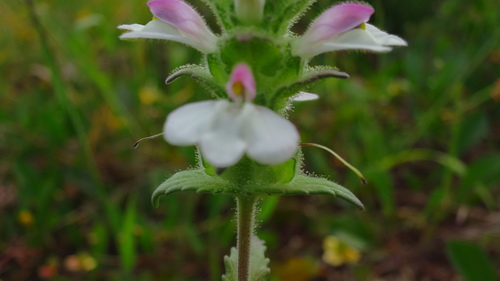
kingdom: Plantae
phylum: Tracheophyta
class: Magnoliopsida
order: Lamiales
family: Orobanchaceae
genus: Bellardia
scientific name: Bellardia trixago
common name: Mediterranean lineseed
